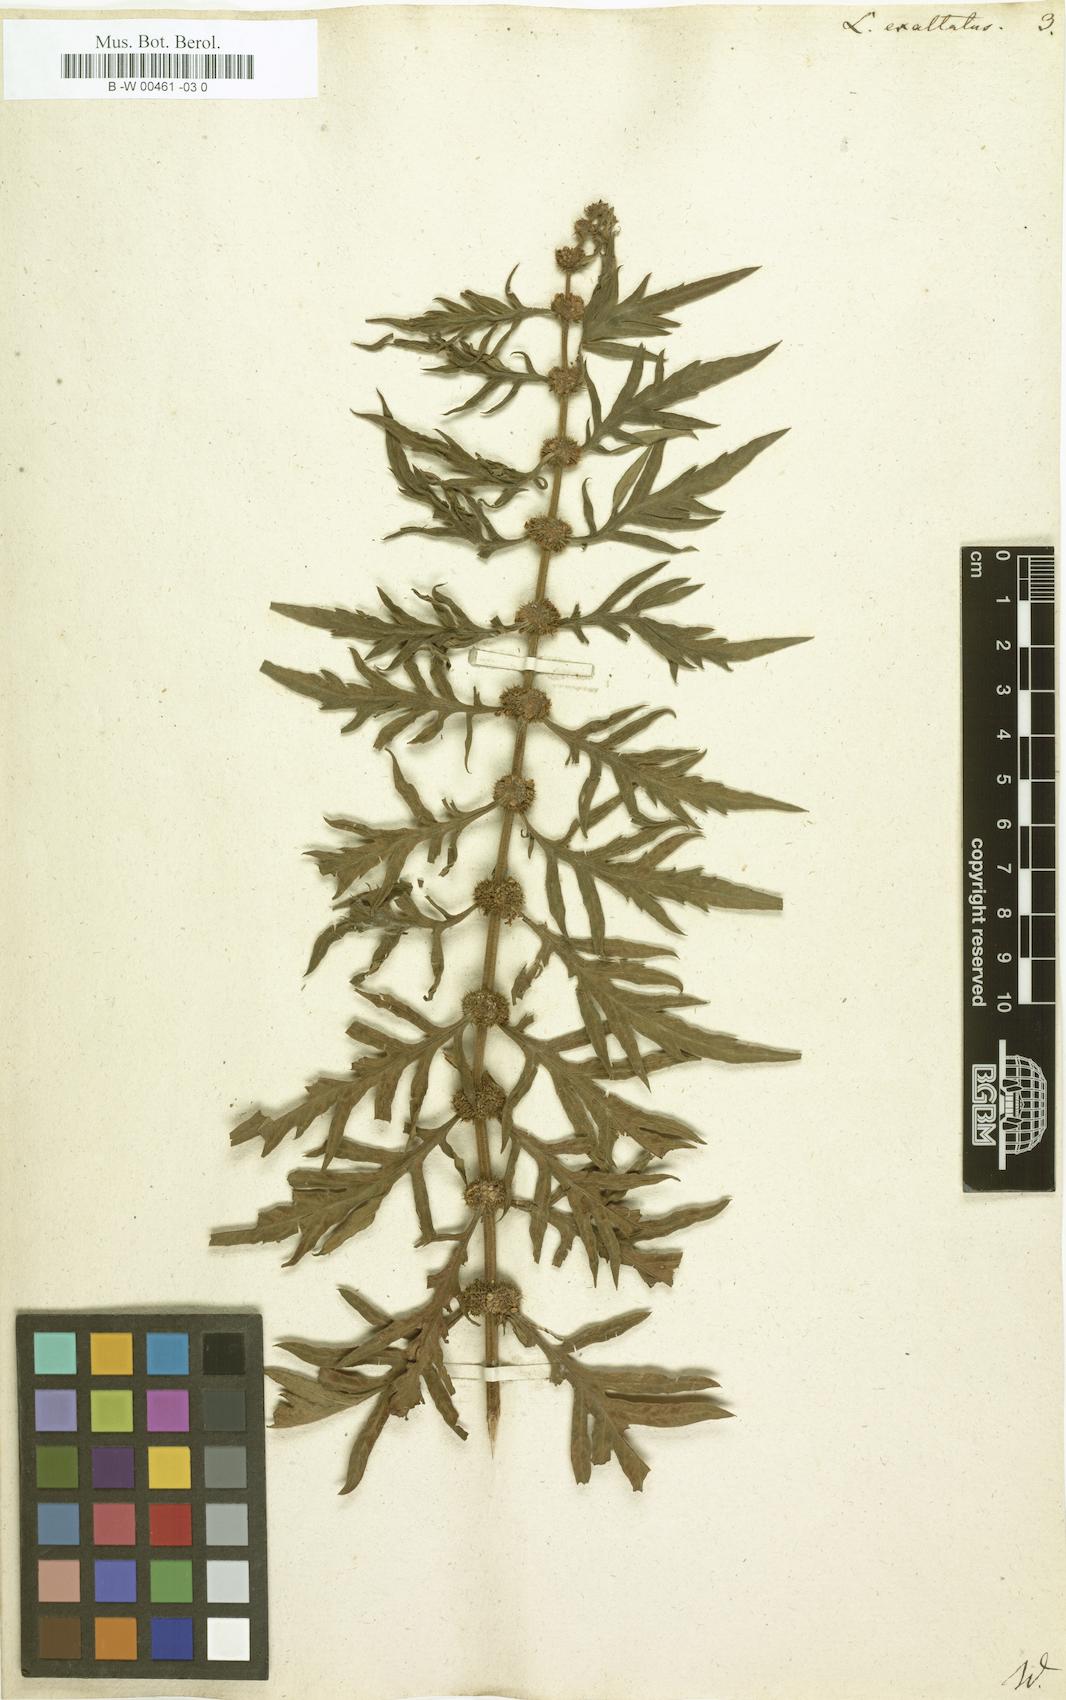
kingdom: Plantae
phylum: Tracheophyta
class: Magnoliopsida
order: Lamiales
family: Lamiaceae
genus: Lycopus
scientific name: Lycopus exaltatus
